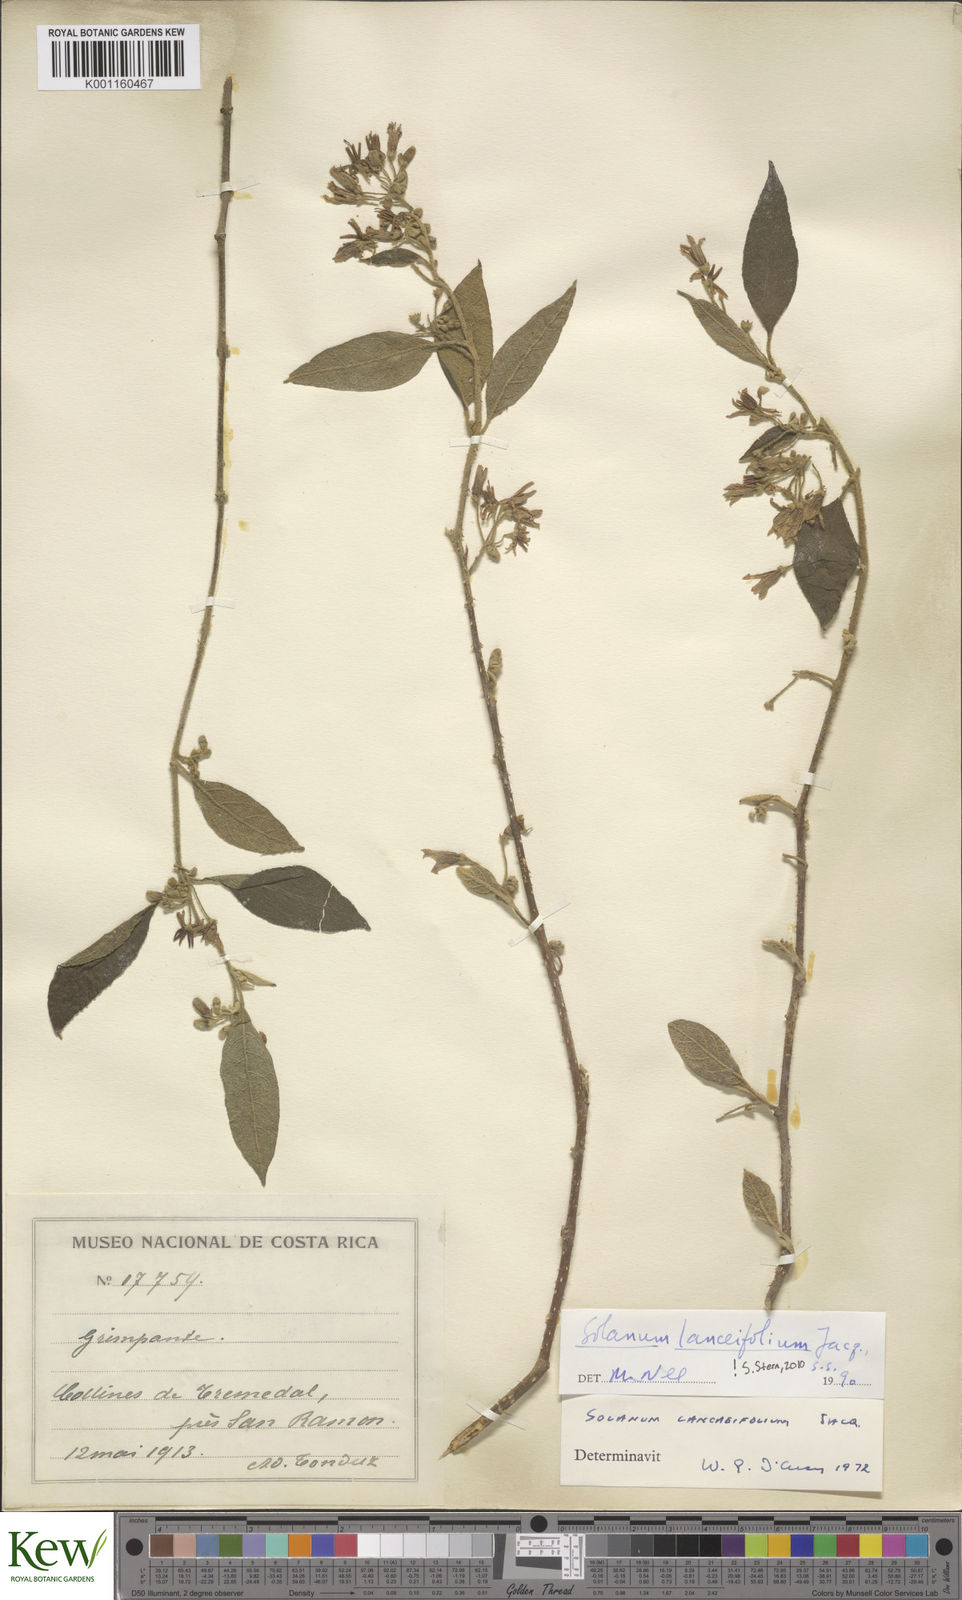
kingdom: Plantae
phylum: Tracheophyta
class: Magnoliopsida
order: Solanales
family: Solanaceae
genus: Solanum
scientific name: Solanum lanceifolium
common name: Lanceleaf nightshade
